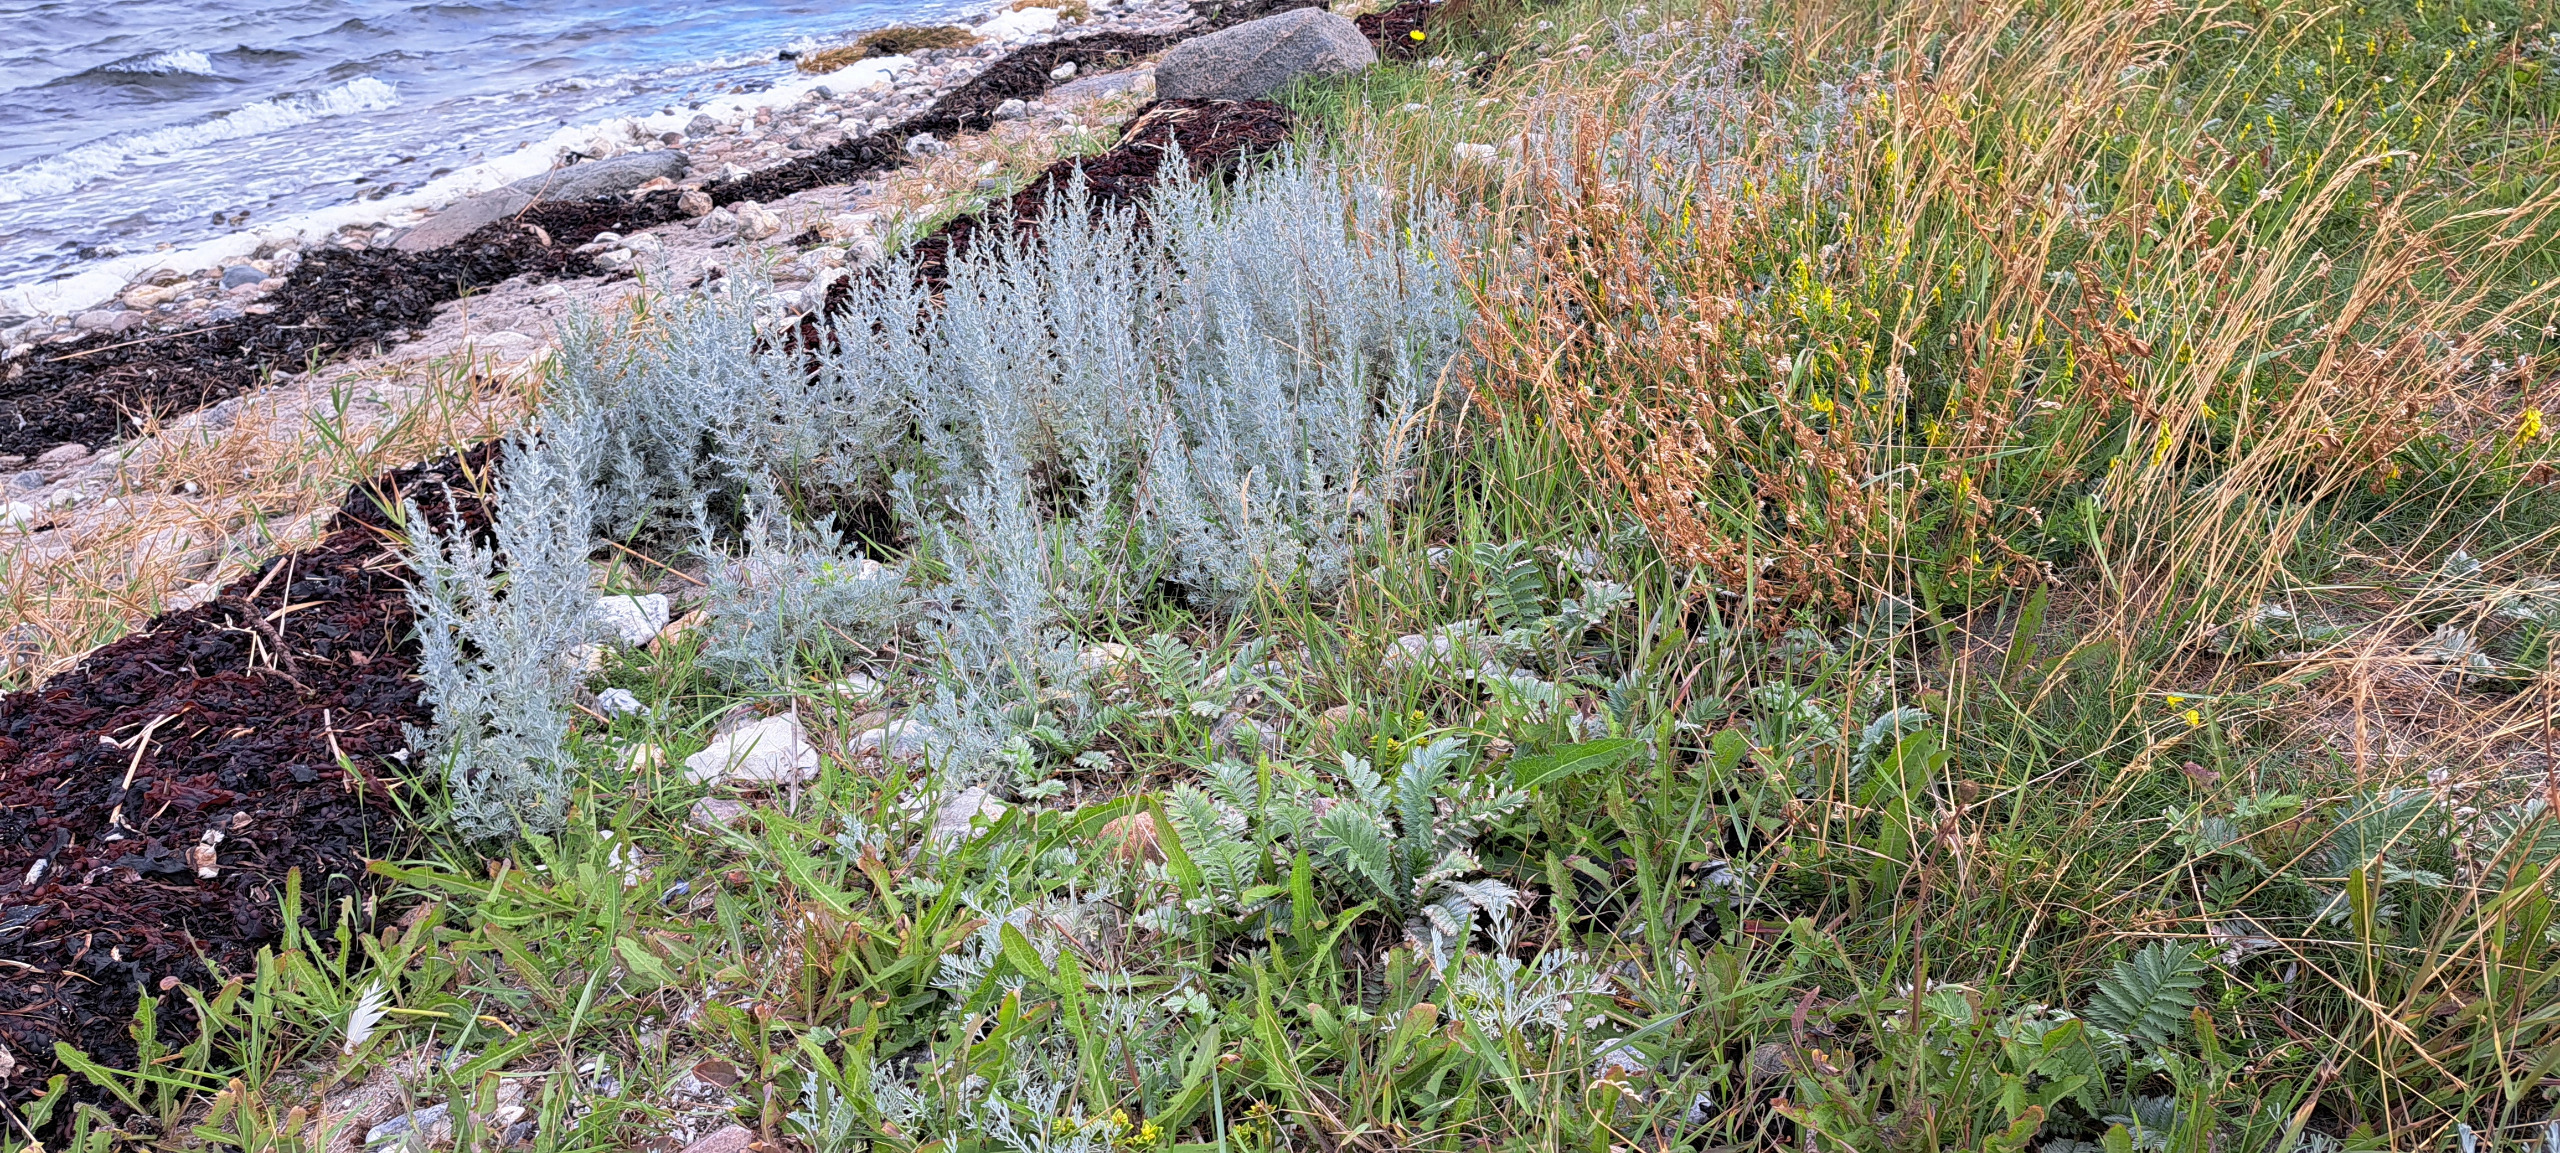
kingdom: Plantae
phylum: Tracheophyta
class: Magnoliopsida
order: Asterales
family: Asteraceae
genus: Artemisia
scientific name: Artemisia maritima
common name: Strandmalurt
